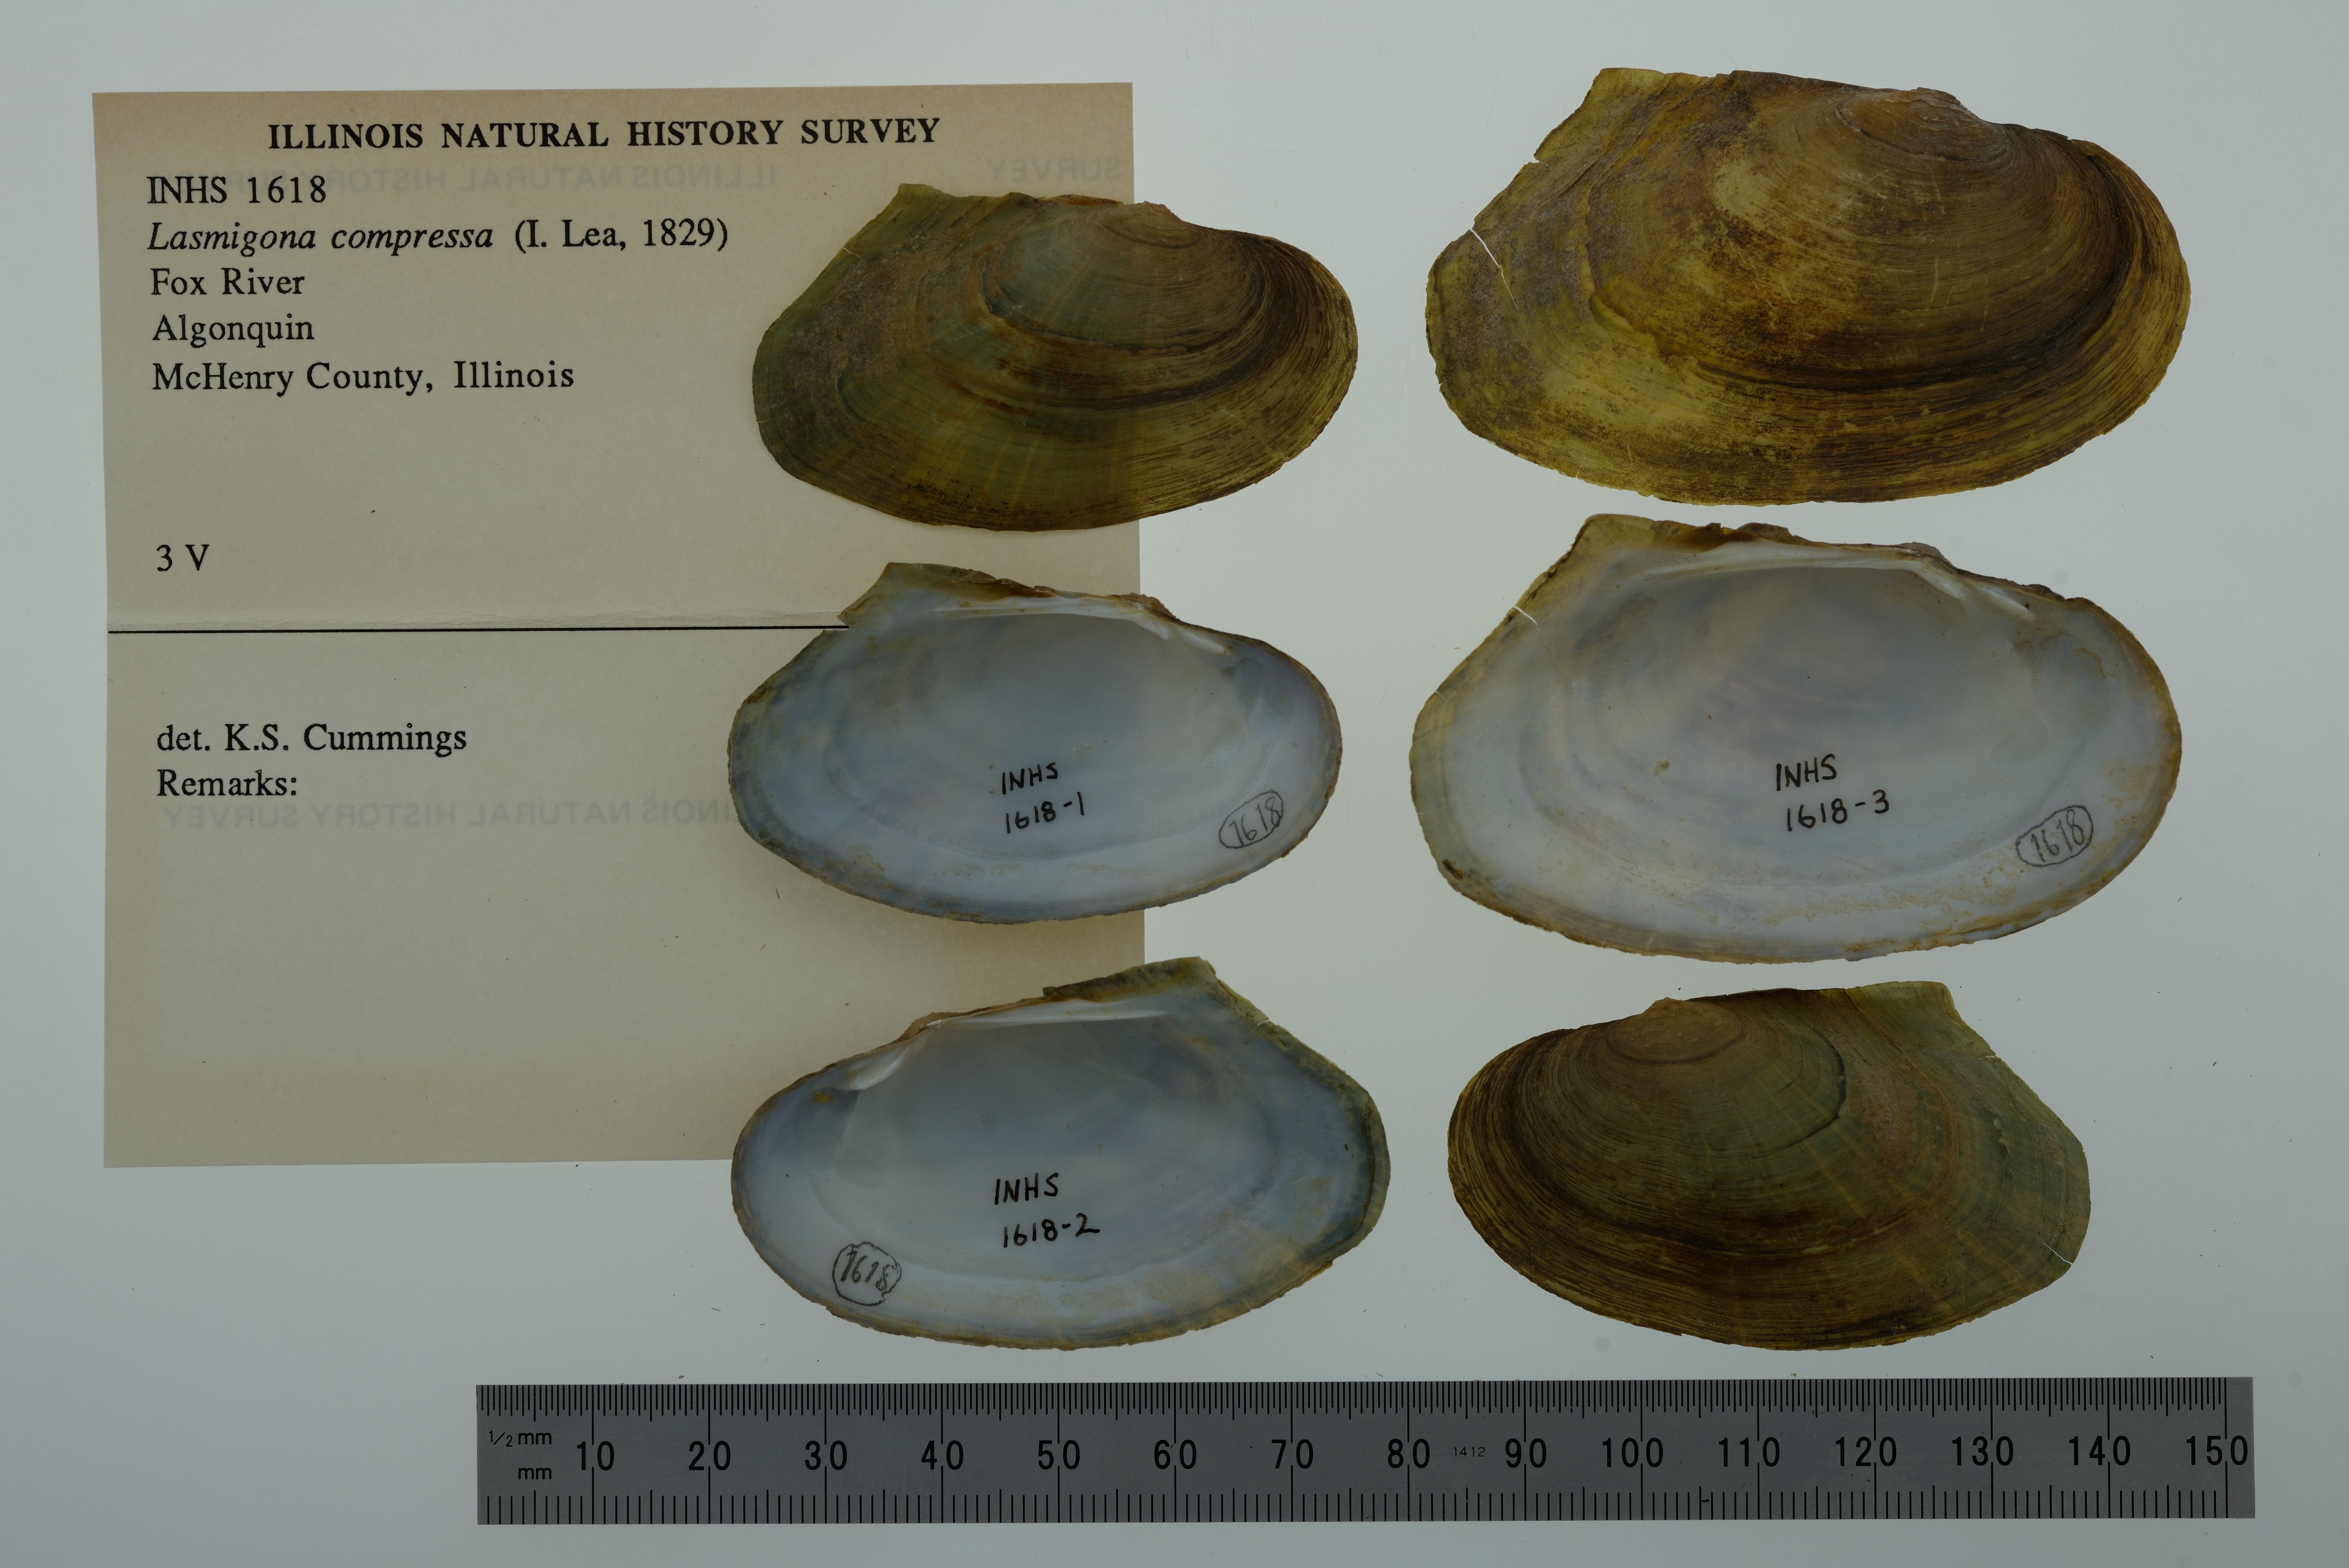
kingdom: Animalia
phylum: Mollusca
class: Bivalvia
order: Unionida
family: Unionidae
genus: Lasmigona
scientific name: Lasmigona compressa
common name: Creek heelsplitter
